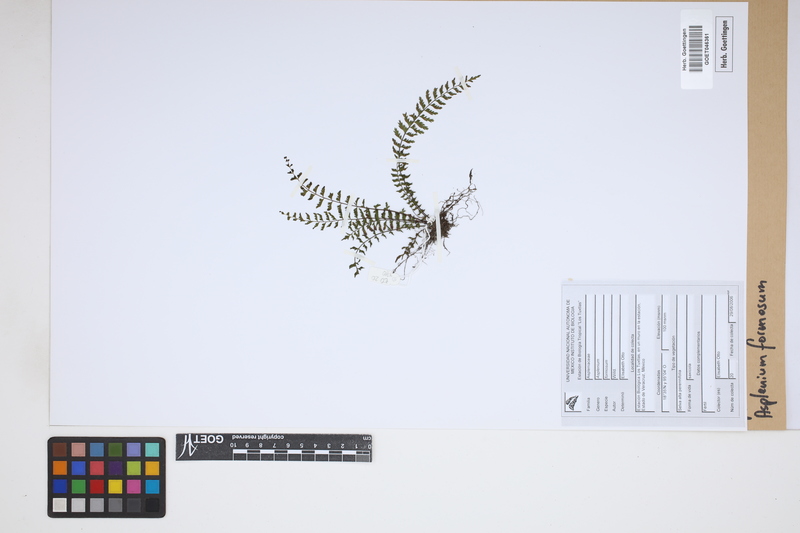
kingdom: Plantae
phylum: Tracheophyta
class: Polypodiopsida
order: Polypodiales
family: Aspleniaceae
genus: Asplenium
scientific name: Asplenium formosum
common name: Showy spleenwort
